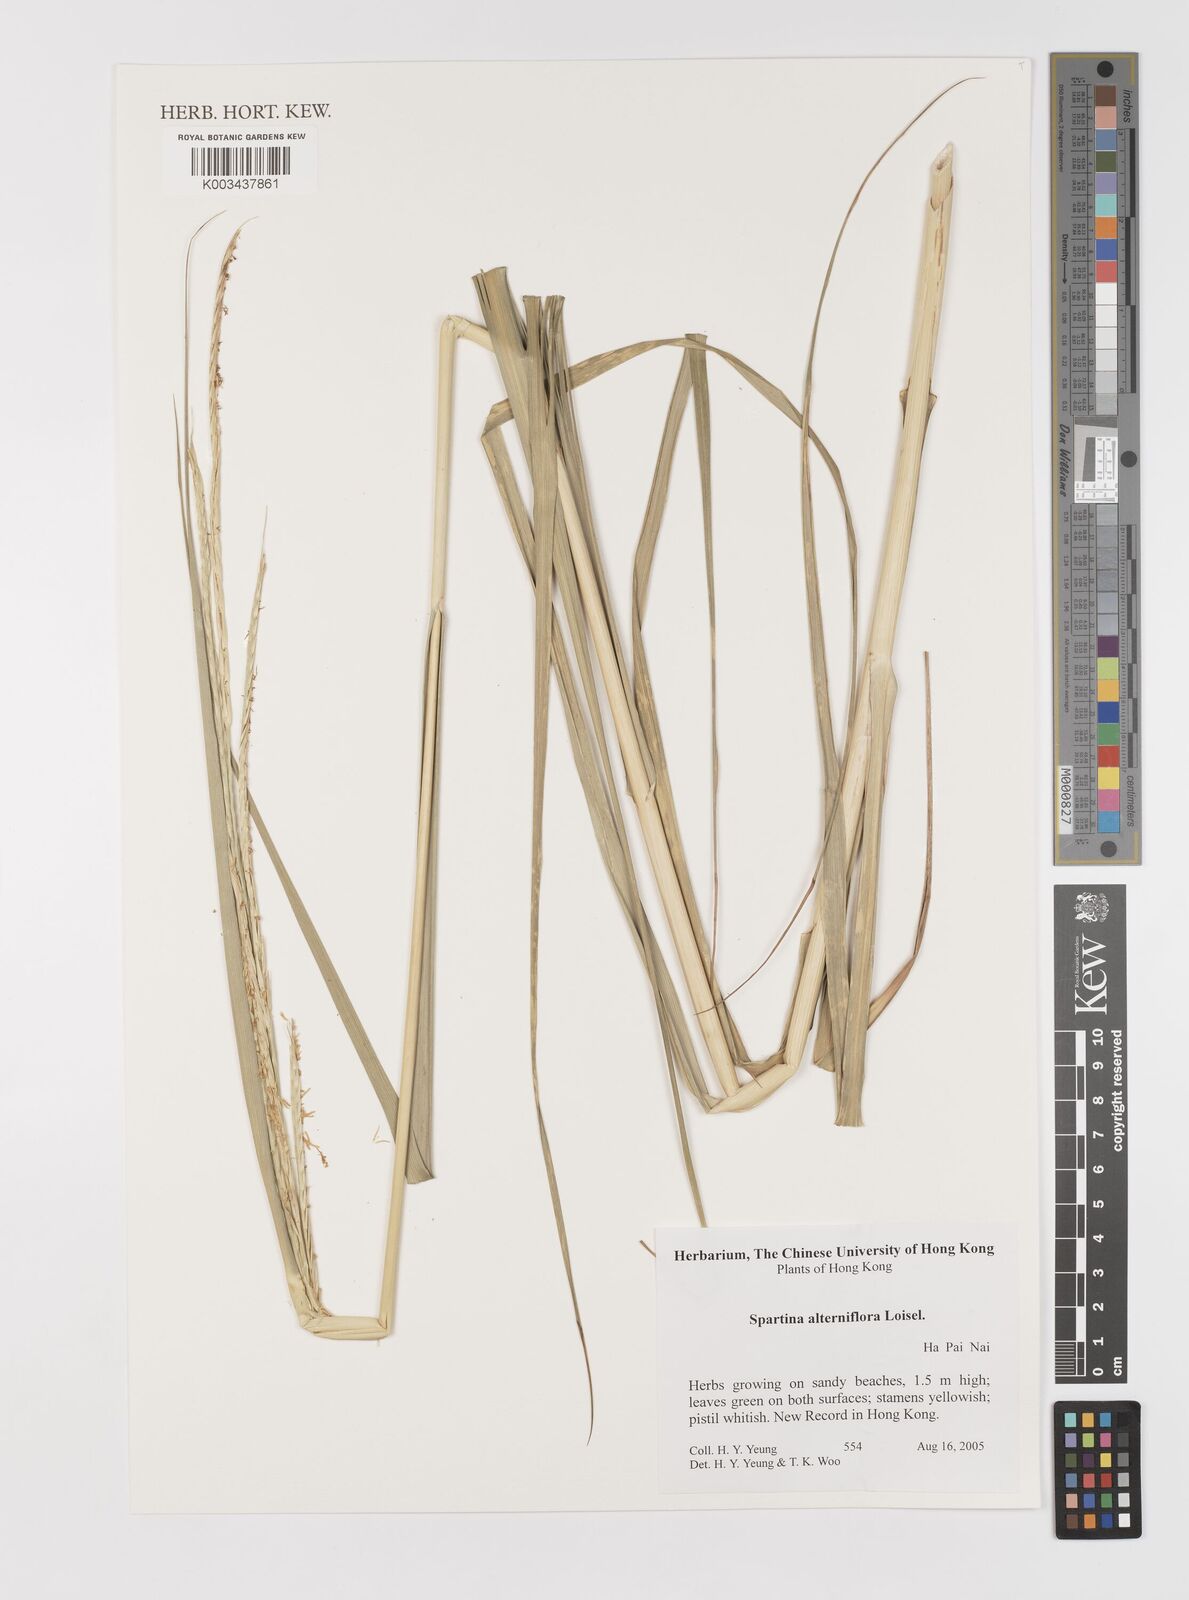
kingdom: Plantae
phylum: Tracheophyta
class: Liliopsida
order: Poales
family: Poaceae
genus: Sporobolus
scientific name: Sporobolus alterniflorus
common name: Atlantic cordgrass
